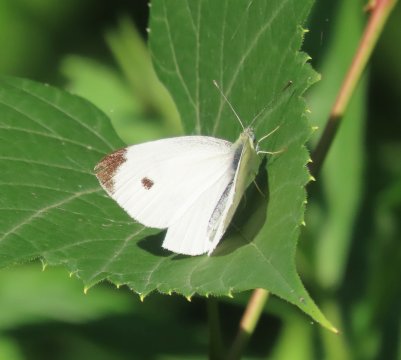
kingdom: Animalia
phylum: Arthropoda
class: Insecta
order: Lepidoptera
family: Pieridae
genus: Pieris
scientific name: Pieris rapae
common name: Cabbage White
